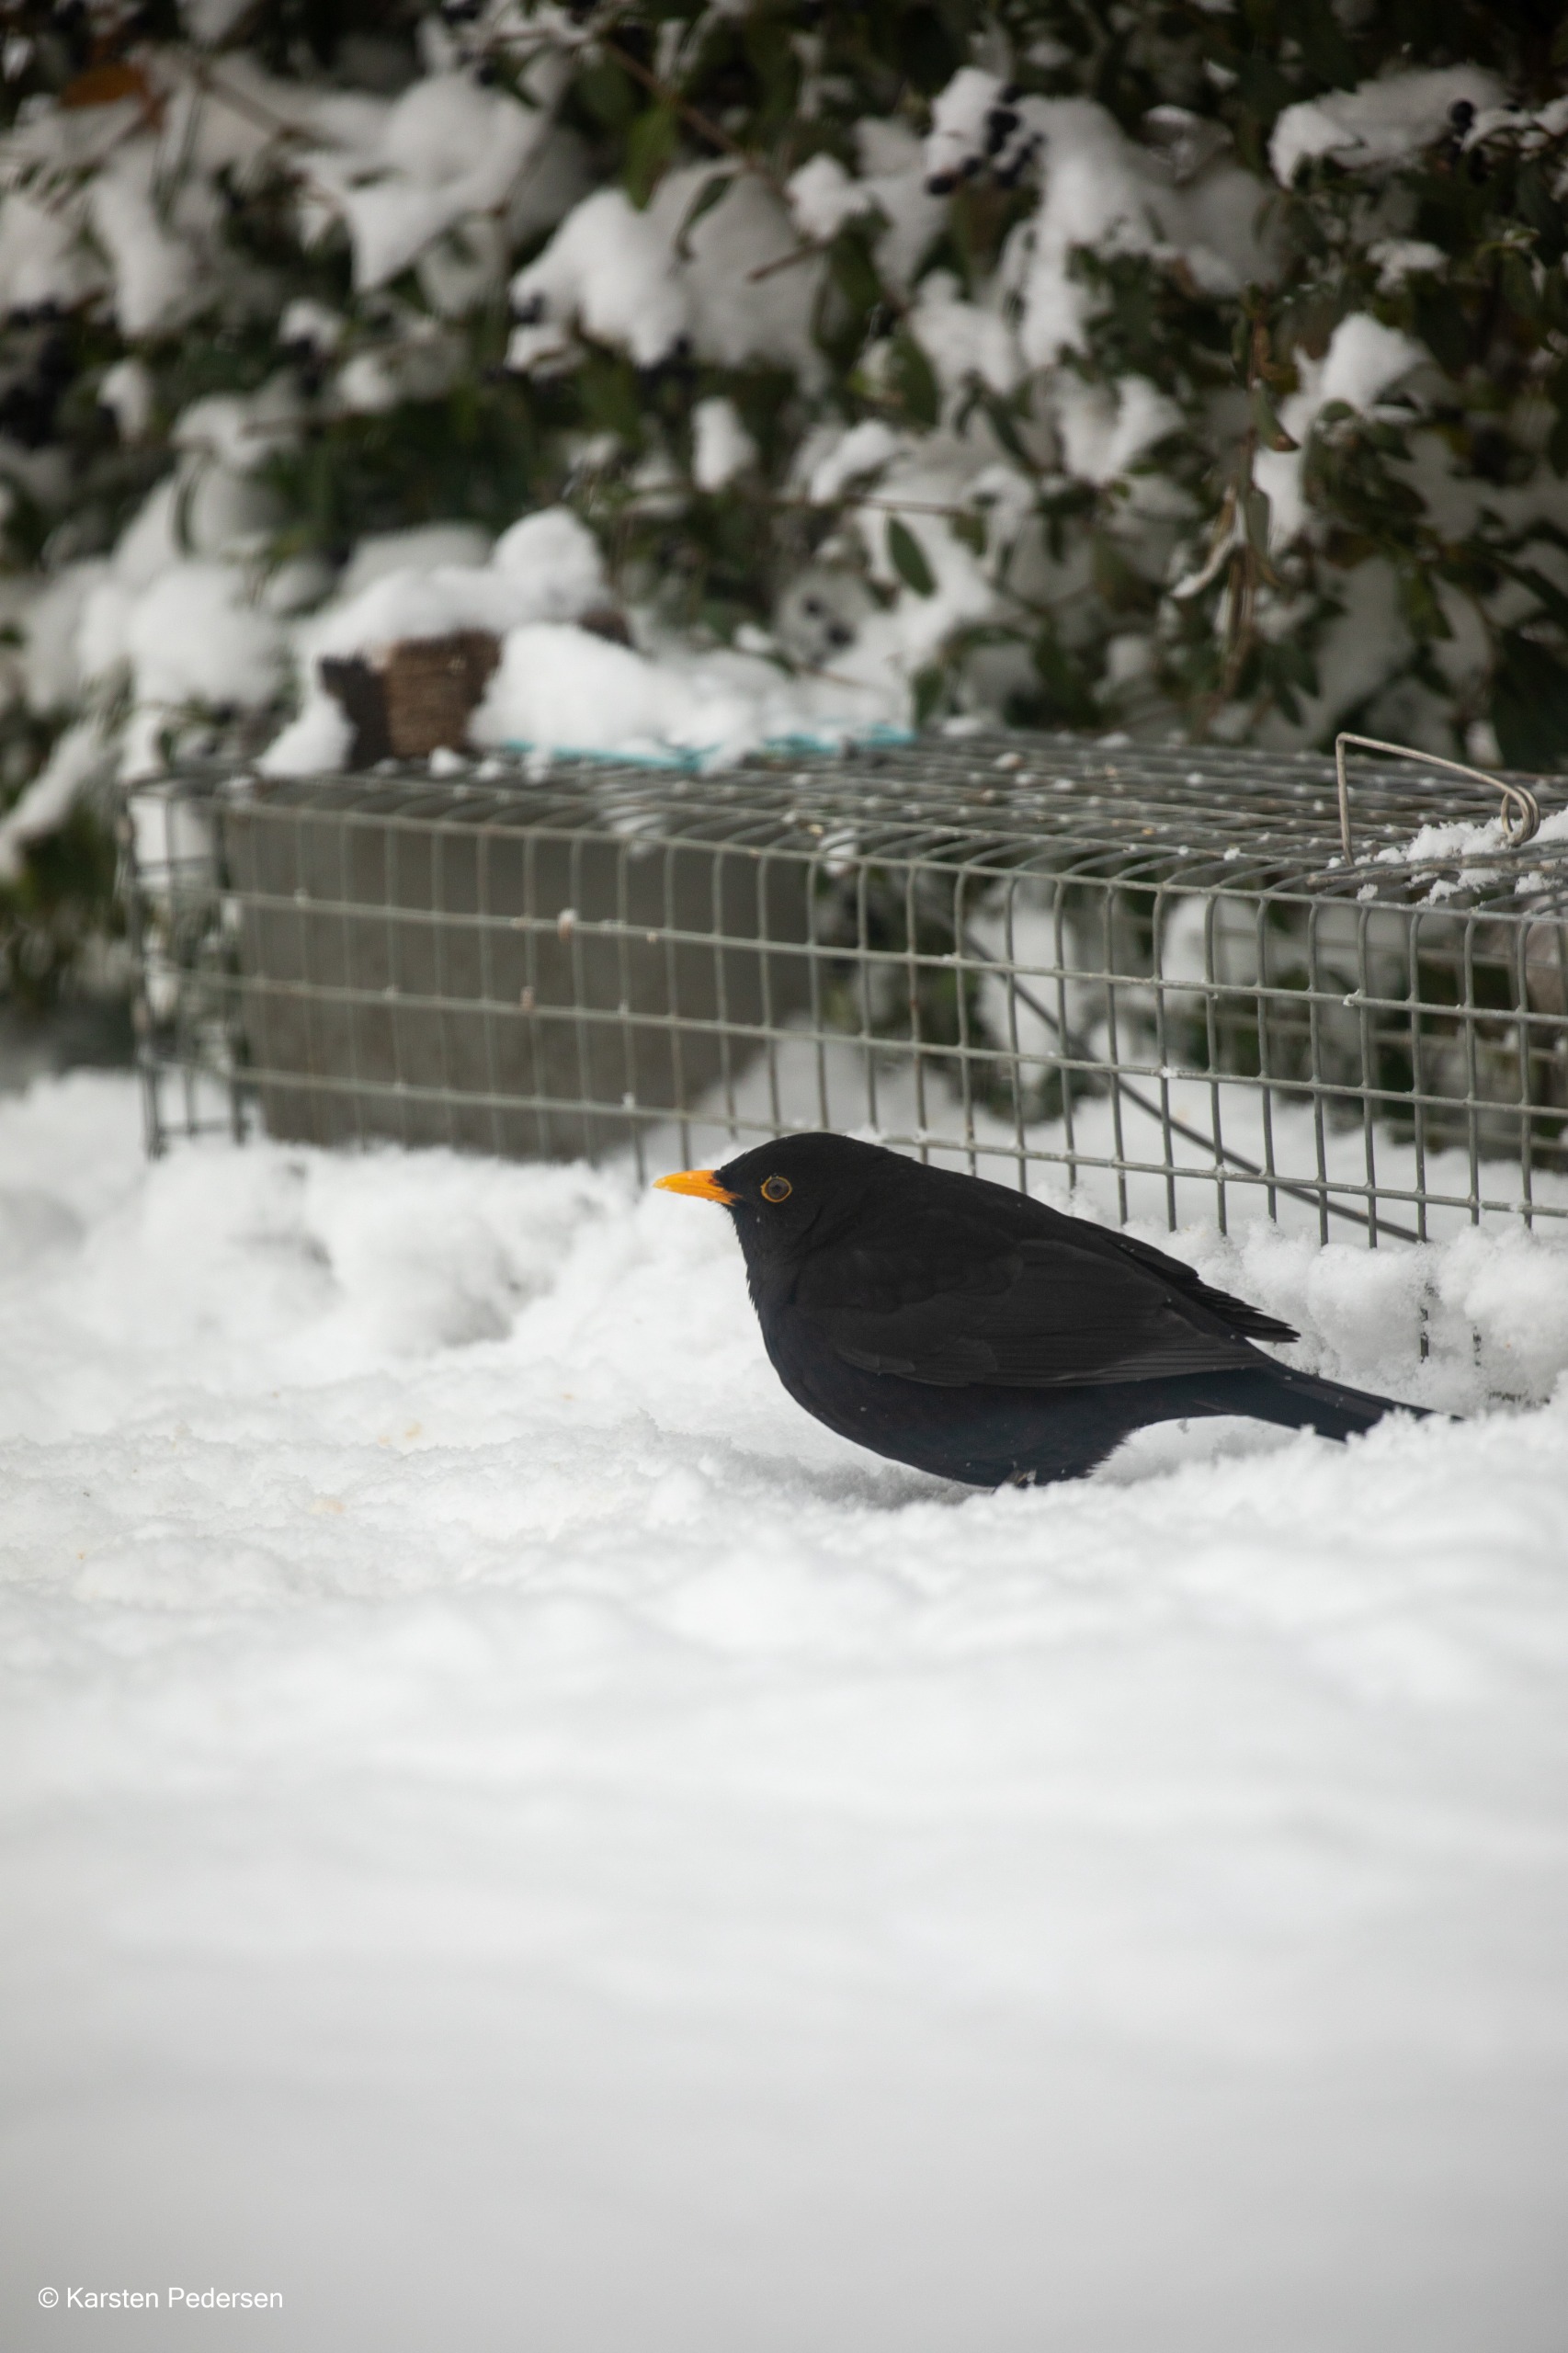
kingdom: Animalia
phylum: Chordata
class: Aves
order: Passeriformes
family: Turdidae
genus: Turdus
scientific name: Turdus merula
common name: Solsort
